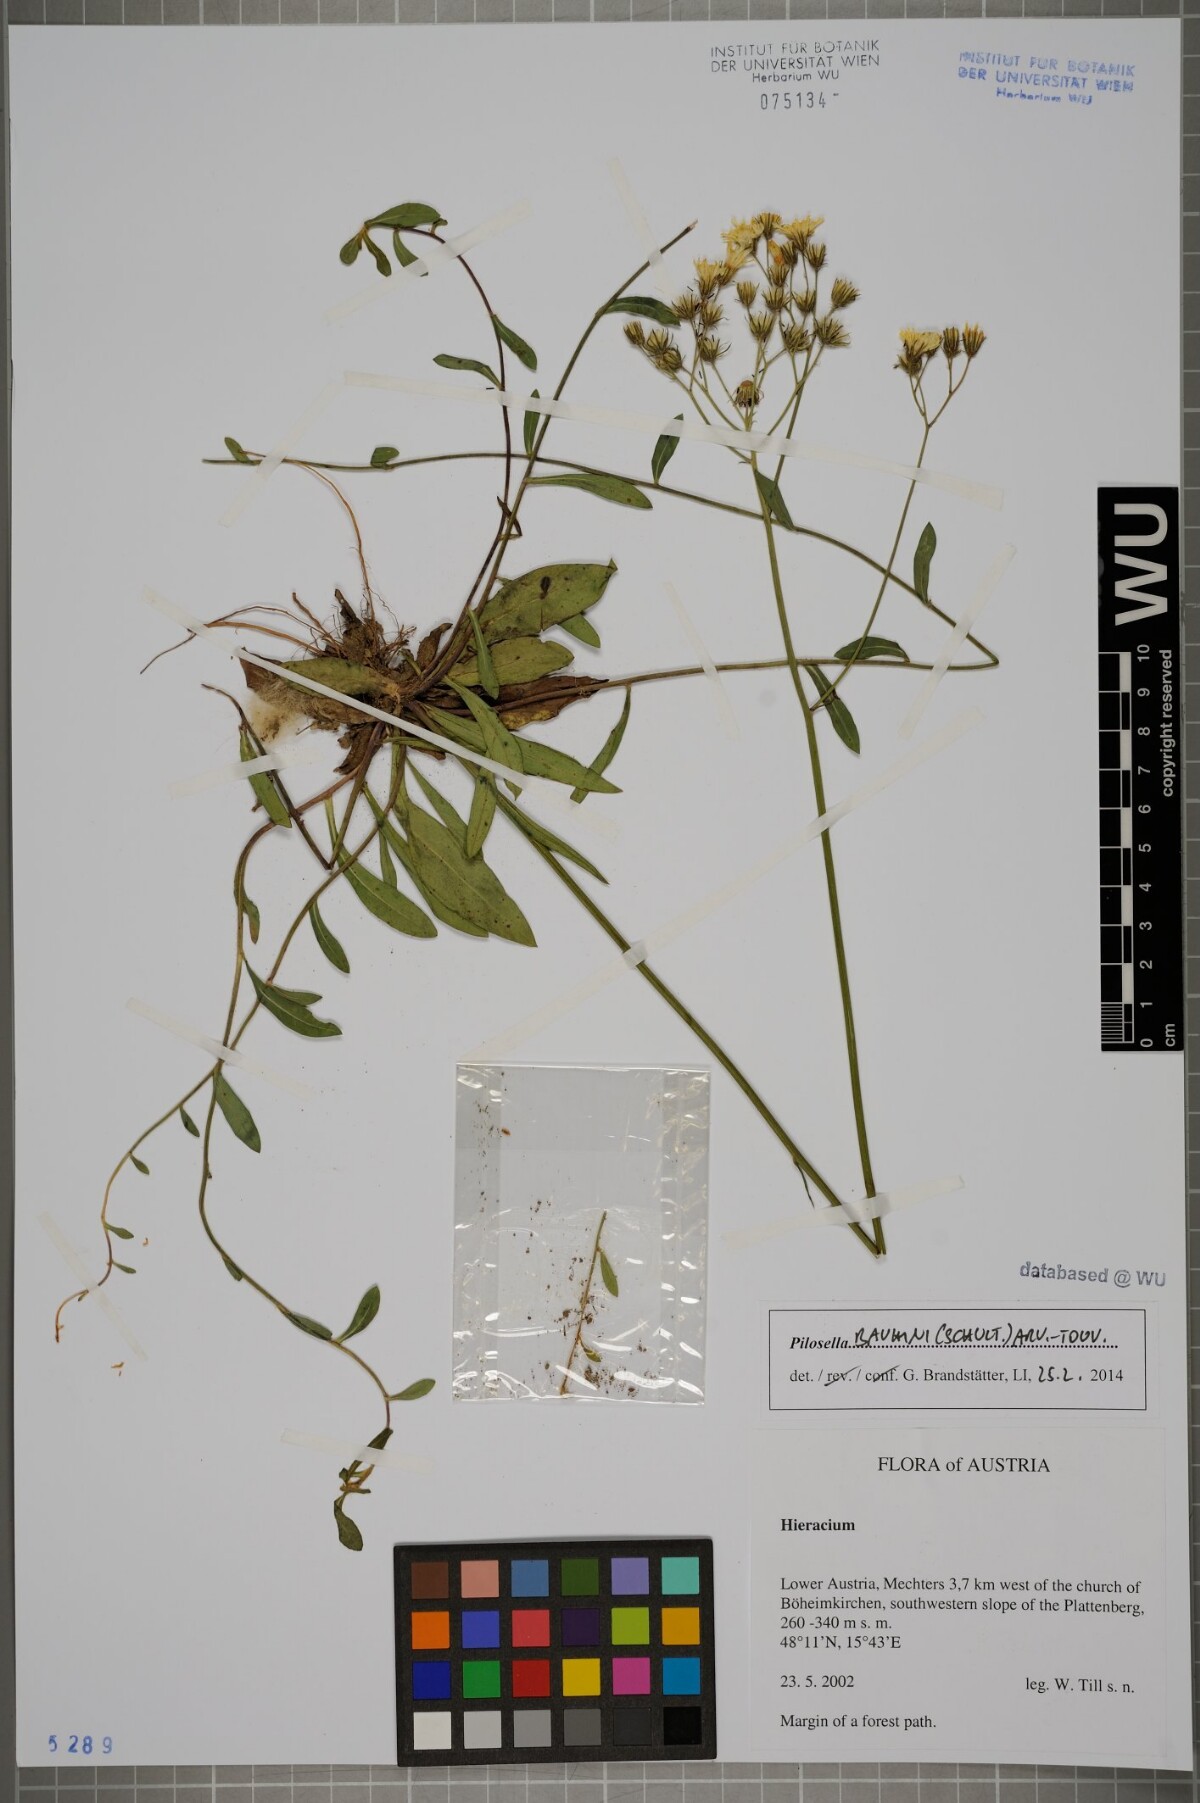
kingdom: Plantae
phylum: Tracheophyta
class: Magnoliopsida
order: Asterales
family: Asteraceae
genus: Pilosella
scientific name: Pilosella bauhini
